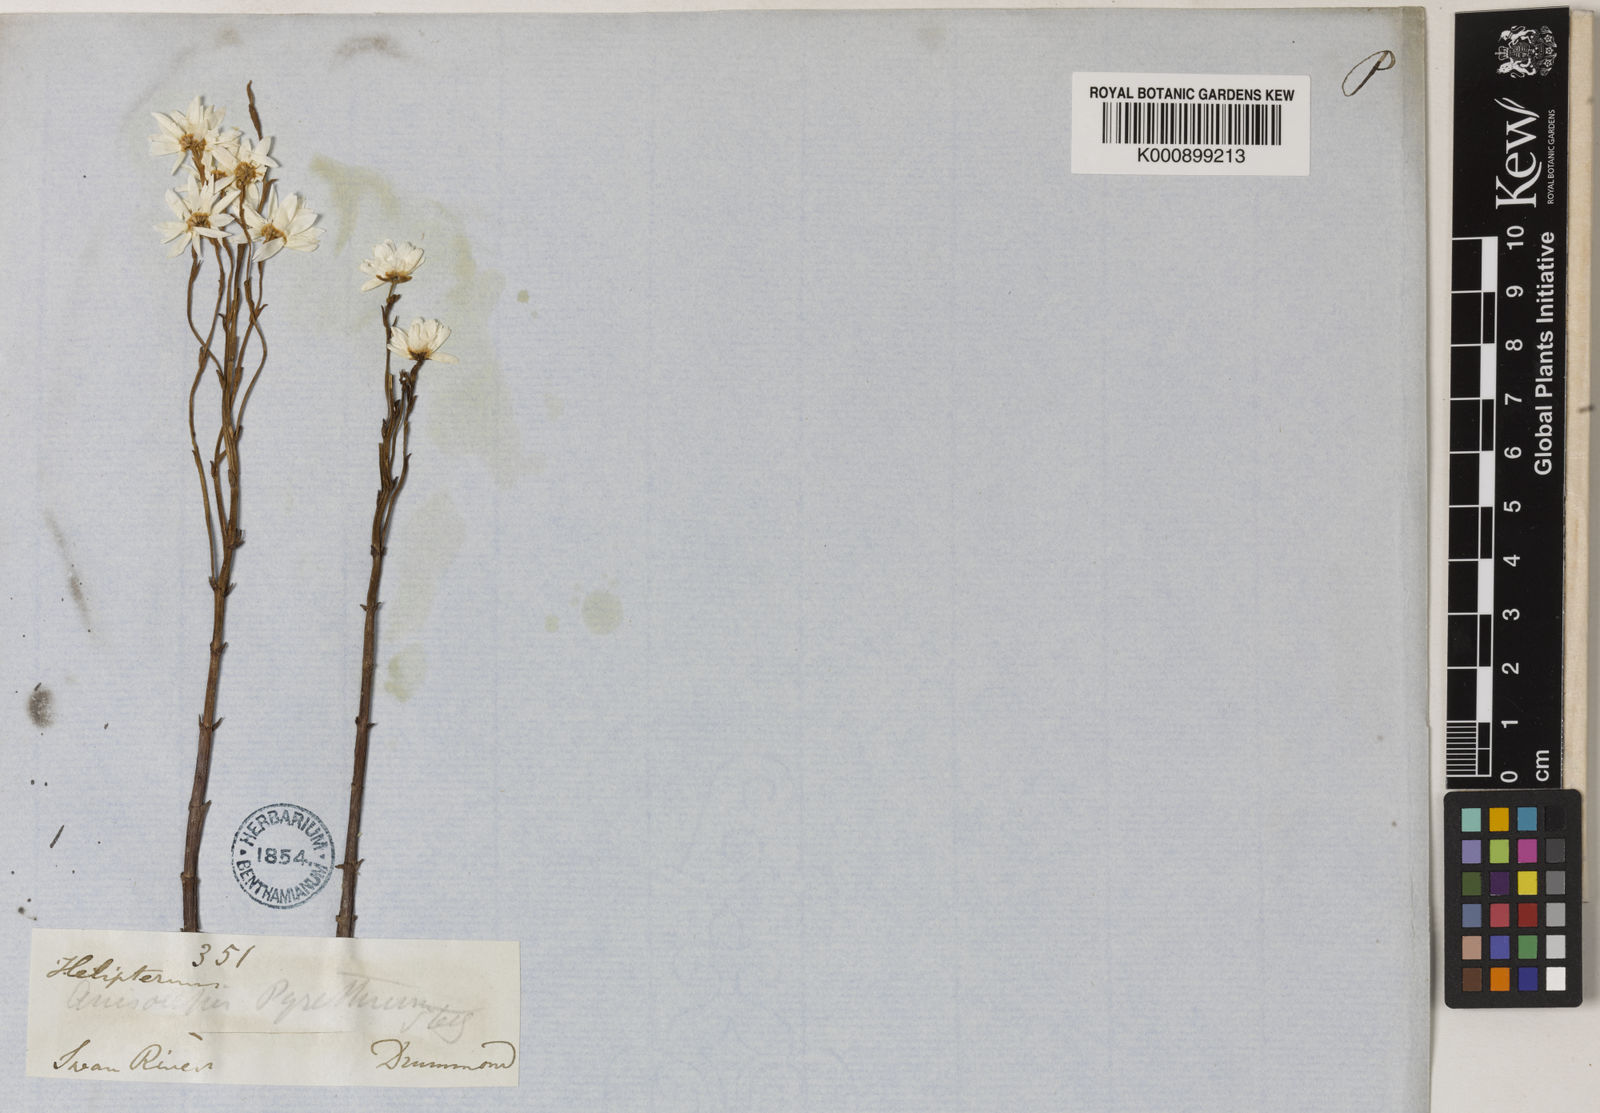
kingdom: Plantae
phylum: Tracheophyta
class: Magnoliopsida
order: Asterales
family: Asteraceae
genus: Rhodanthe
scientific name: Rhodanthe pyrethrum
